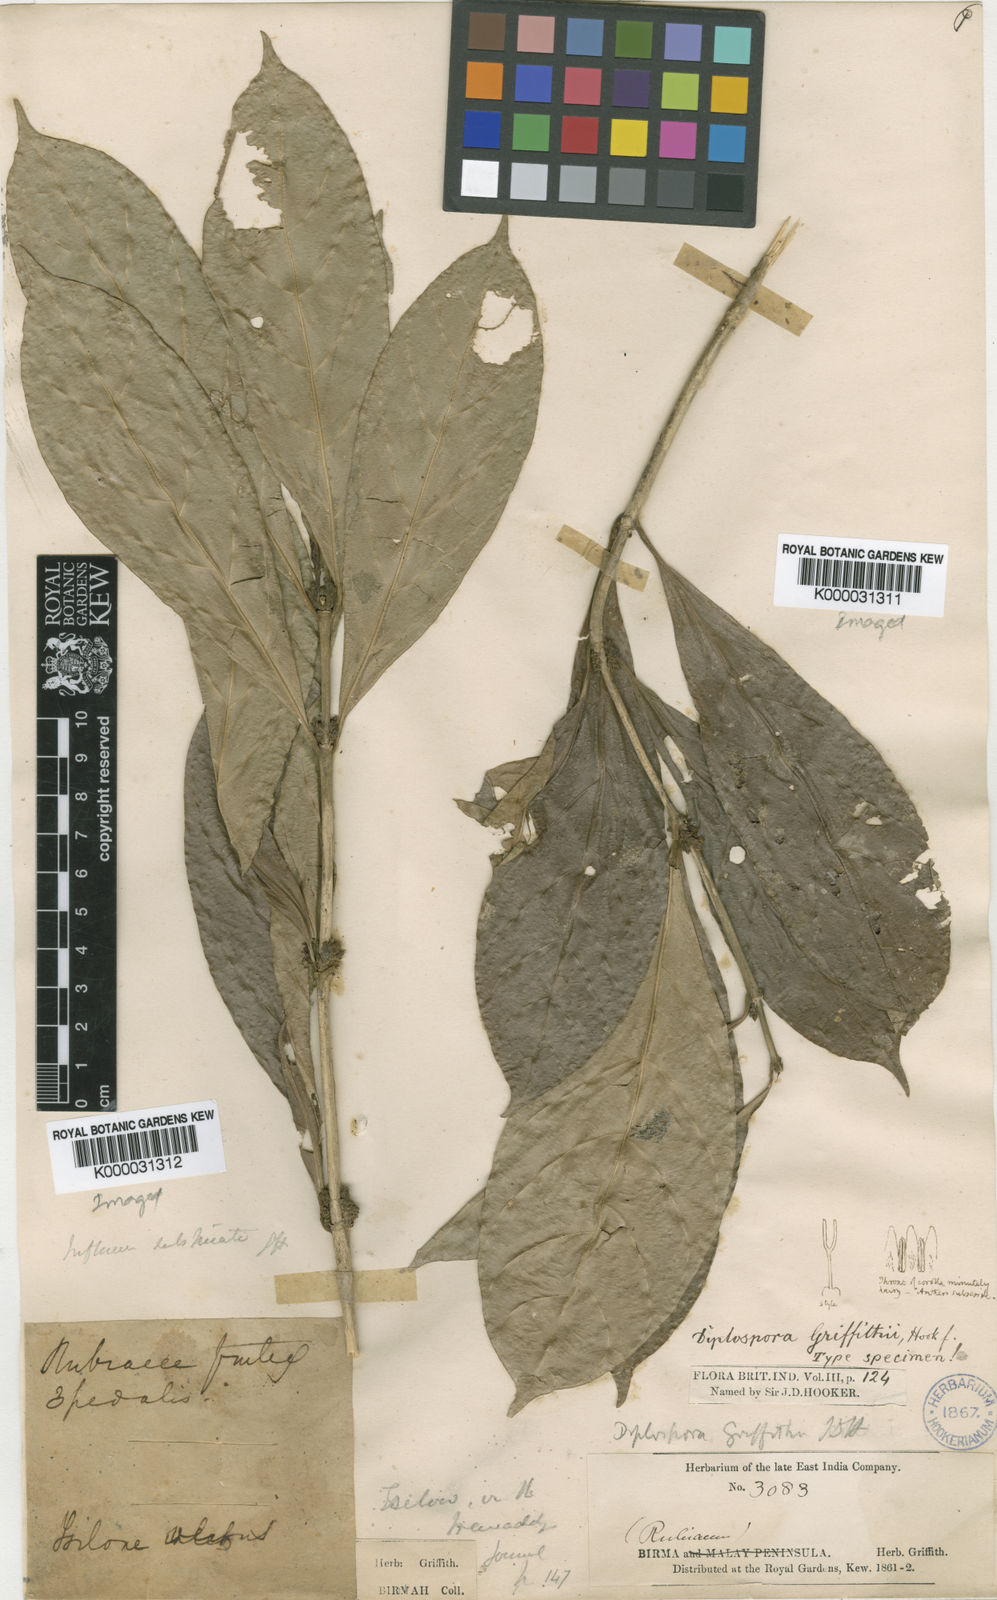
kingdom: Plantae
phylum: Tracheophyta
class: Magnoliopsida
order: Gentianales
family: Rubiaceae
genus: Diplospora
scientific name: Diplospora griffithii
